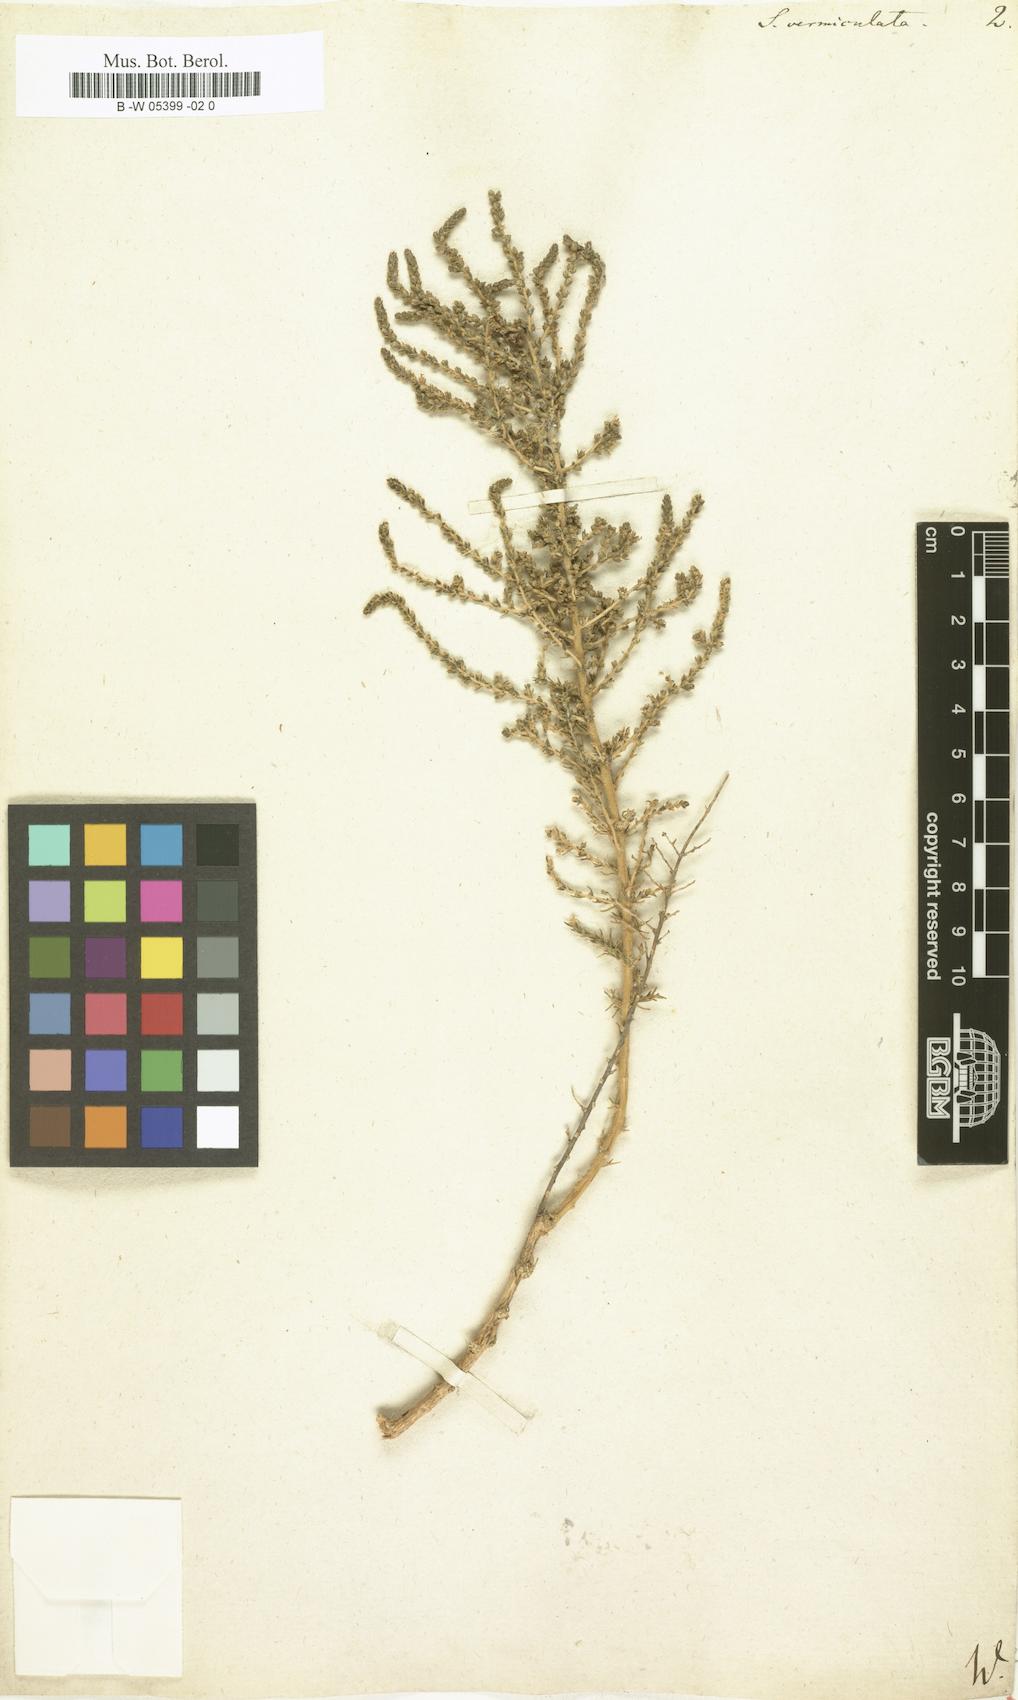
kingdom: Plantae
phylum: Tracheophyta
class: Magnoliopsida
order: Caryophyllales
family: Amaranthaceae
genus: Nitrosalsola
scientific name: Nitrosalsola vermiculata
